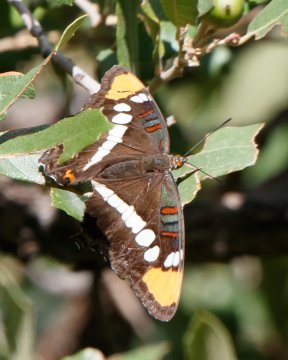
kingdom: Animalia
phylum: Arthropoda
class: Insecta
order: Lepidoptera
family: Nymphalidae
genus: Limenitis
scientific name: Limenitis bredowii
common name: Arizona Sister
